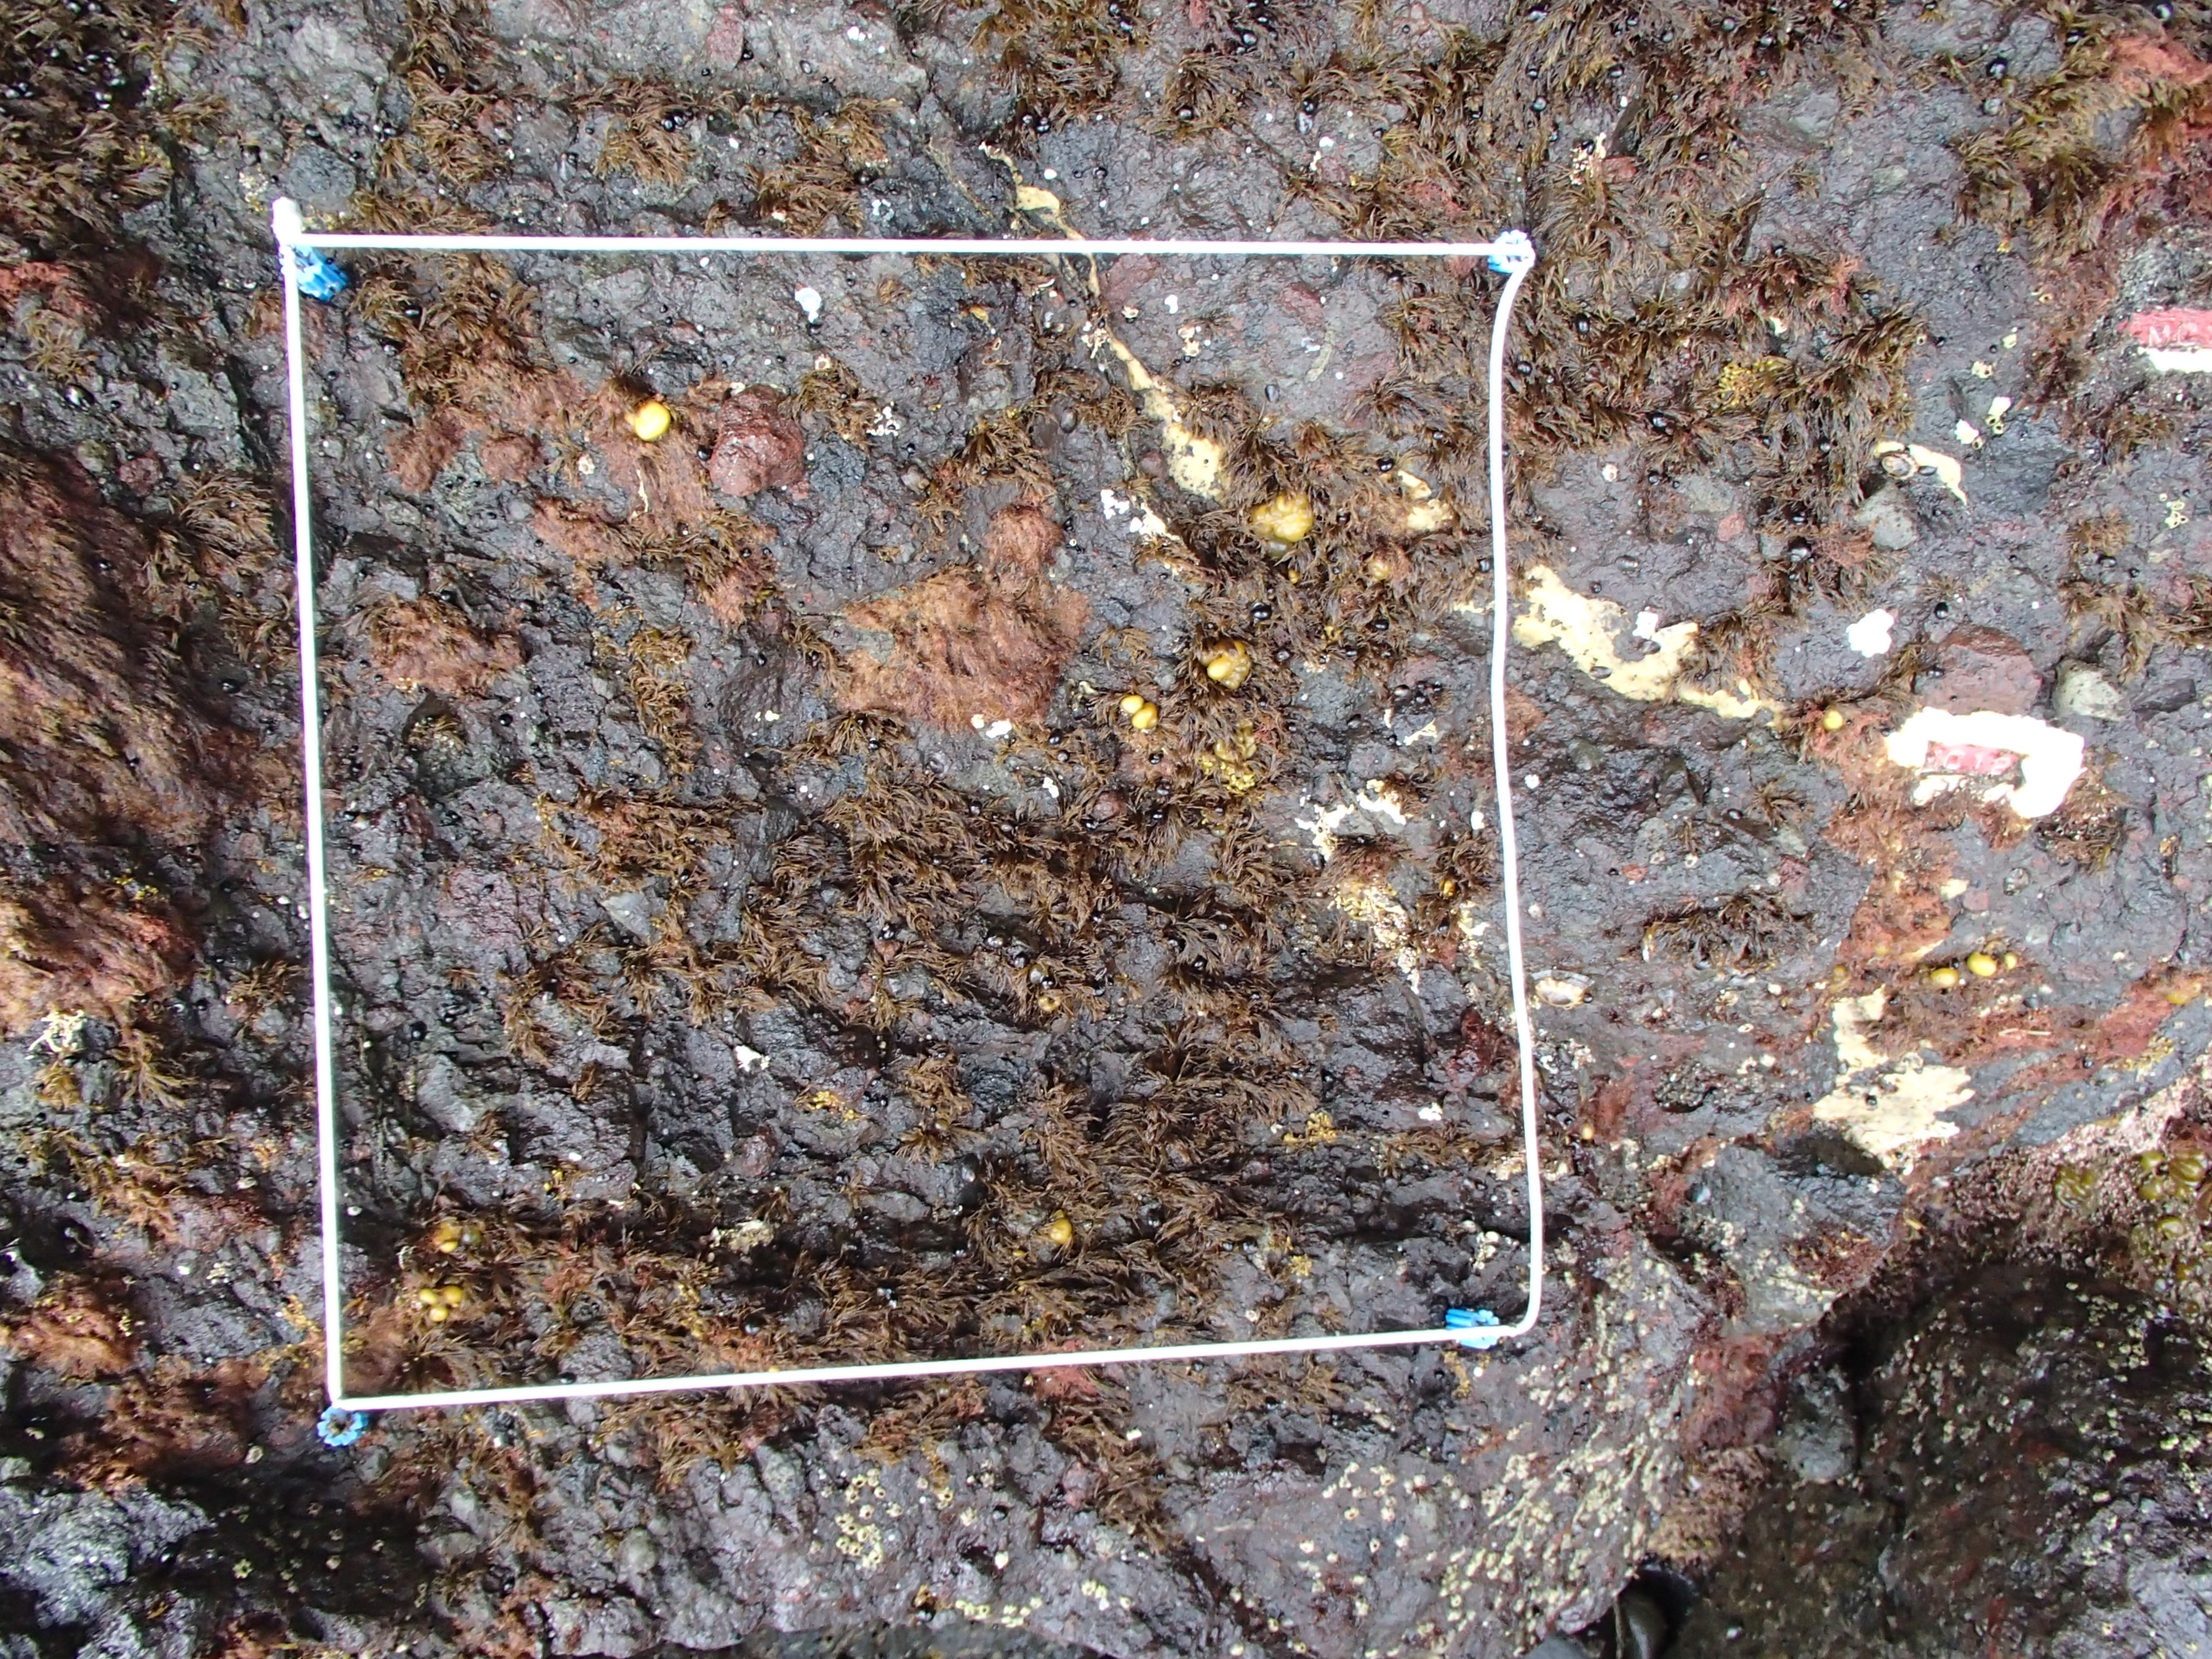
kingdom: Animalia
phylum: Arthropoda
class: Maxillopoda
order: Sessilia
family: Chthamalidae
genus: Chthamalus
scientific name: Chthamalus dalli
